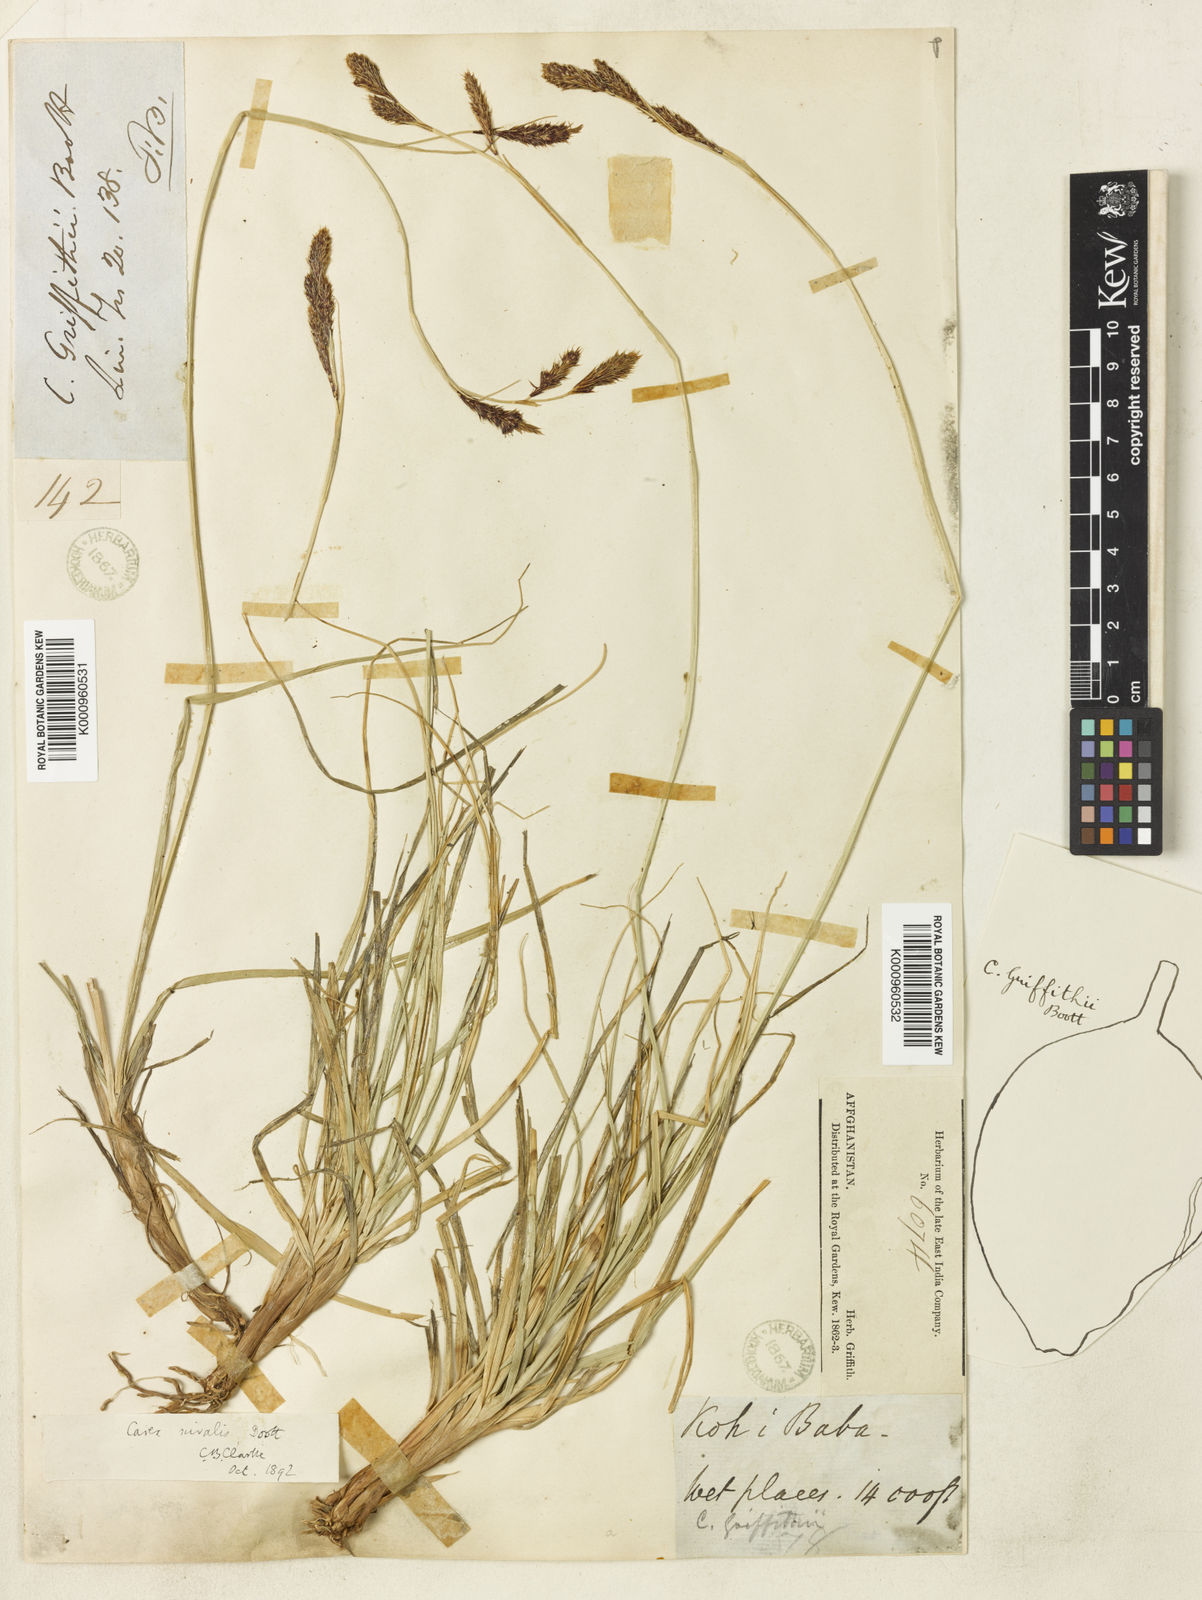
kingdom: Plantae
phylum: Tracheophyta
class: Liliopsida
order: Poales
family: Cyperaceae
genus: Carex
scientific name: Carex nivalis
